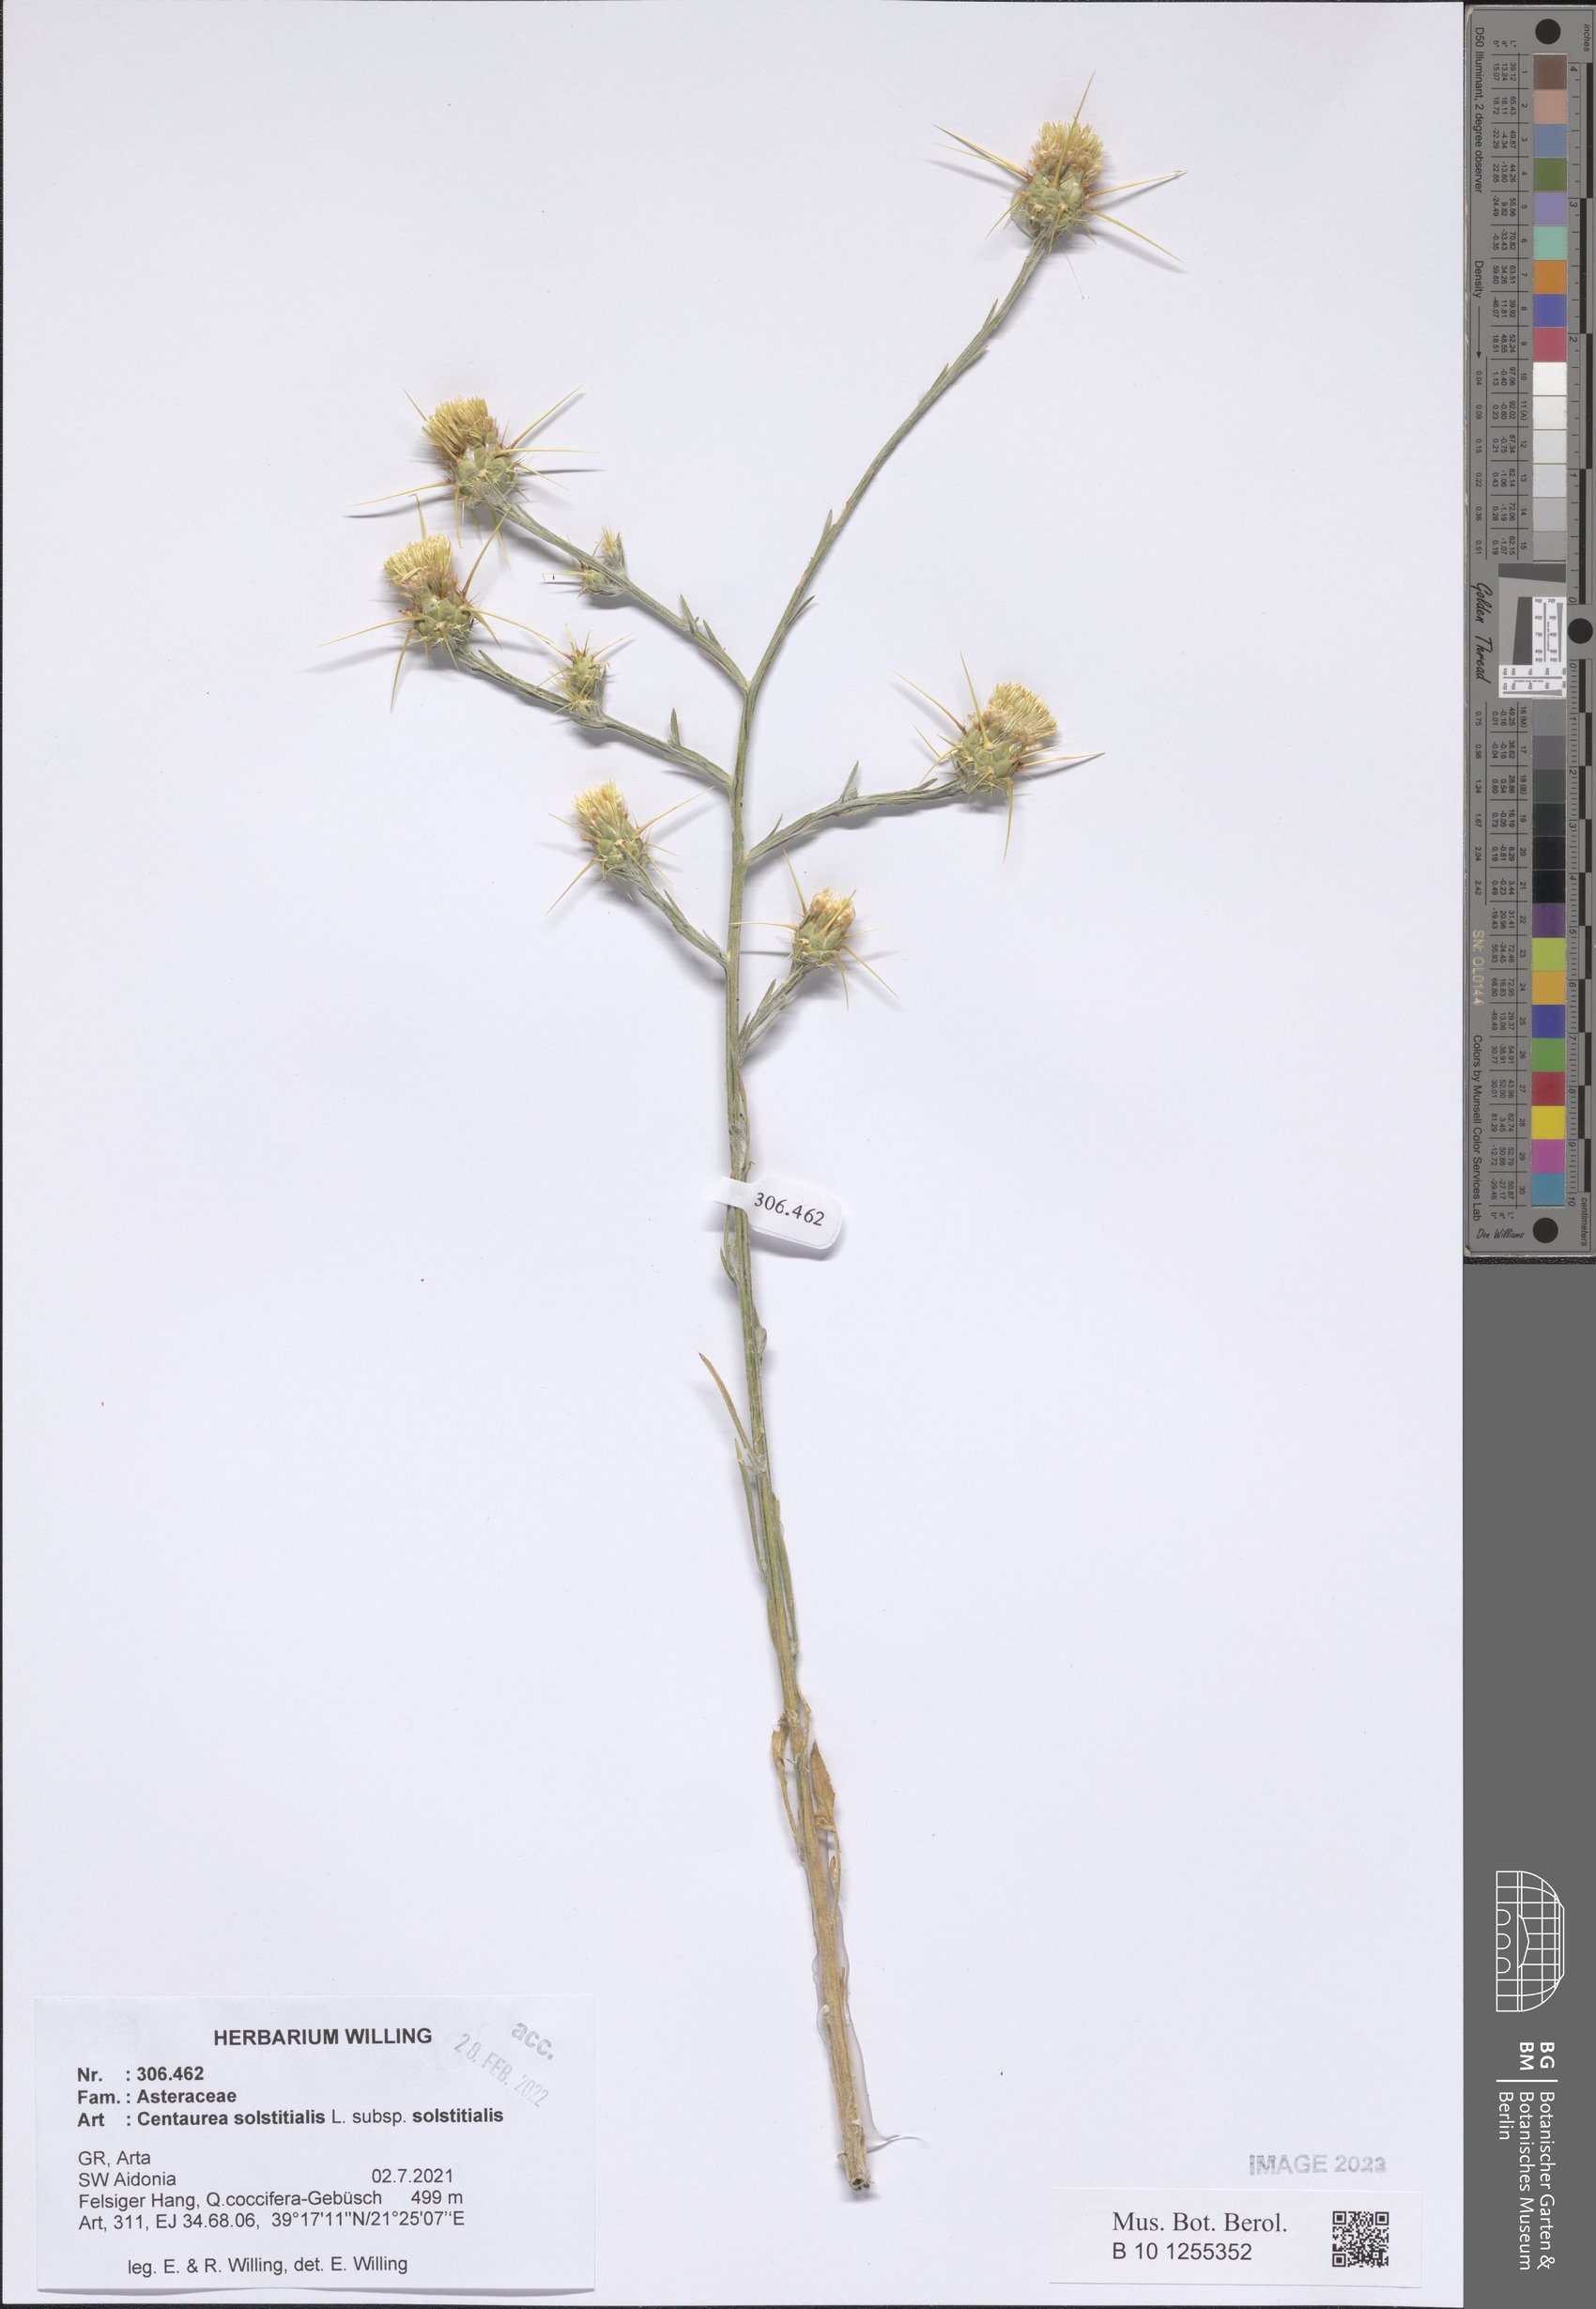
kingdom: Plantae
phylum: Tracheophyta
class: Magnoliopsida
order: Asterales
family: Asteraceae
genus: Centaurea
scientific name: Centaurea solstitialis
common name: Yellow star-thistle
